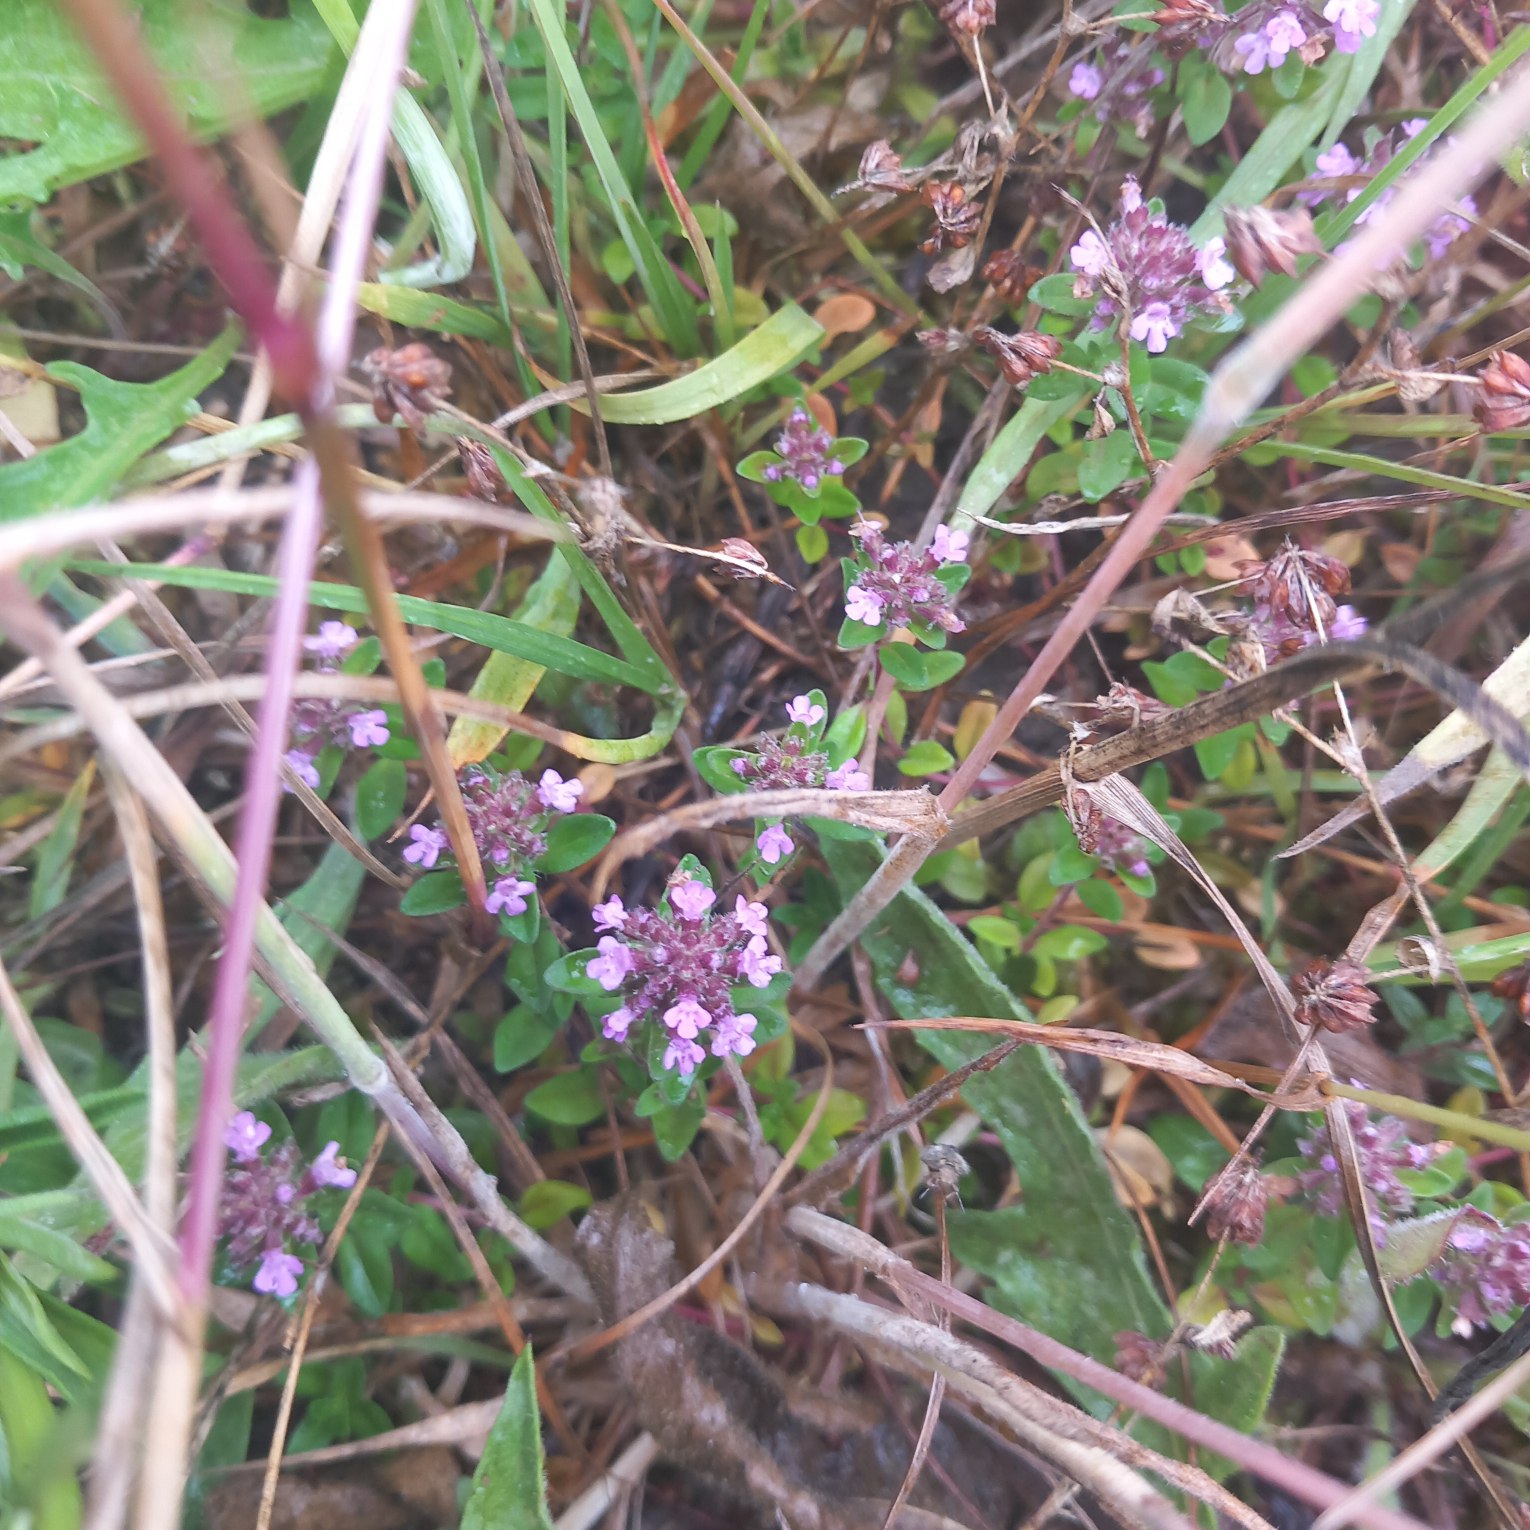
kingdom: Plantae
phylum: Tracheophyta
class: Magnoliopsida
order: Lamiales
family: Lamiaceae
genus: Thymus
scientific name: Thymus pulegioides
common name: Bredbladet timian
